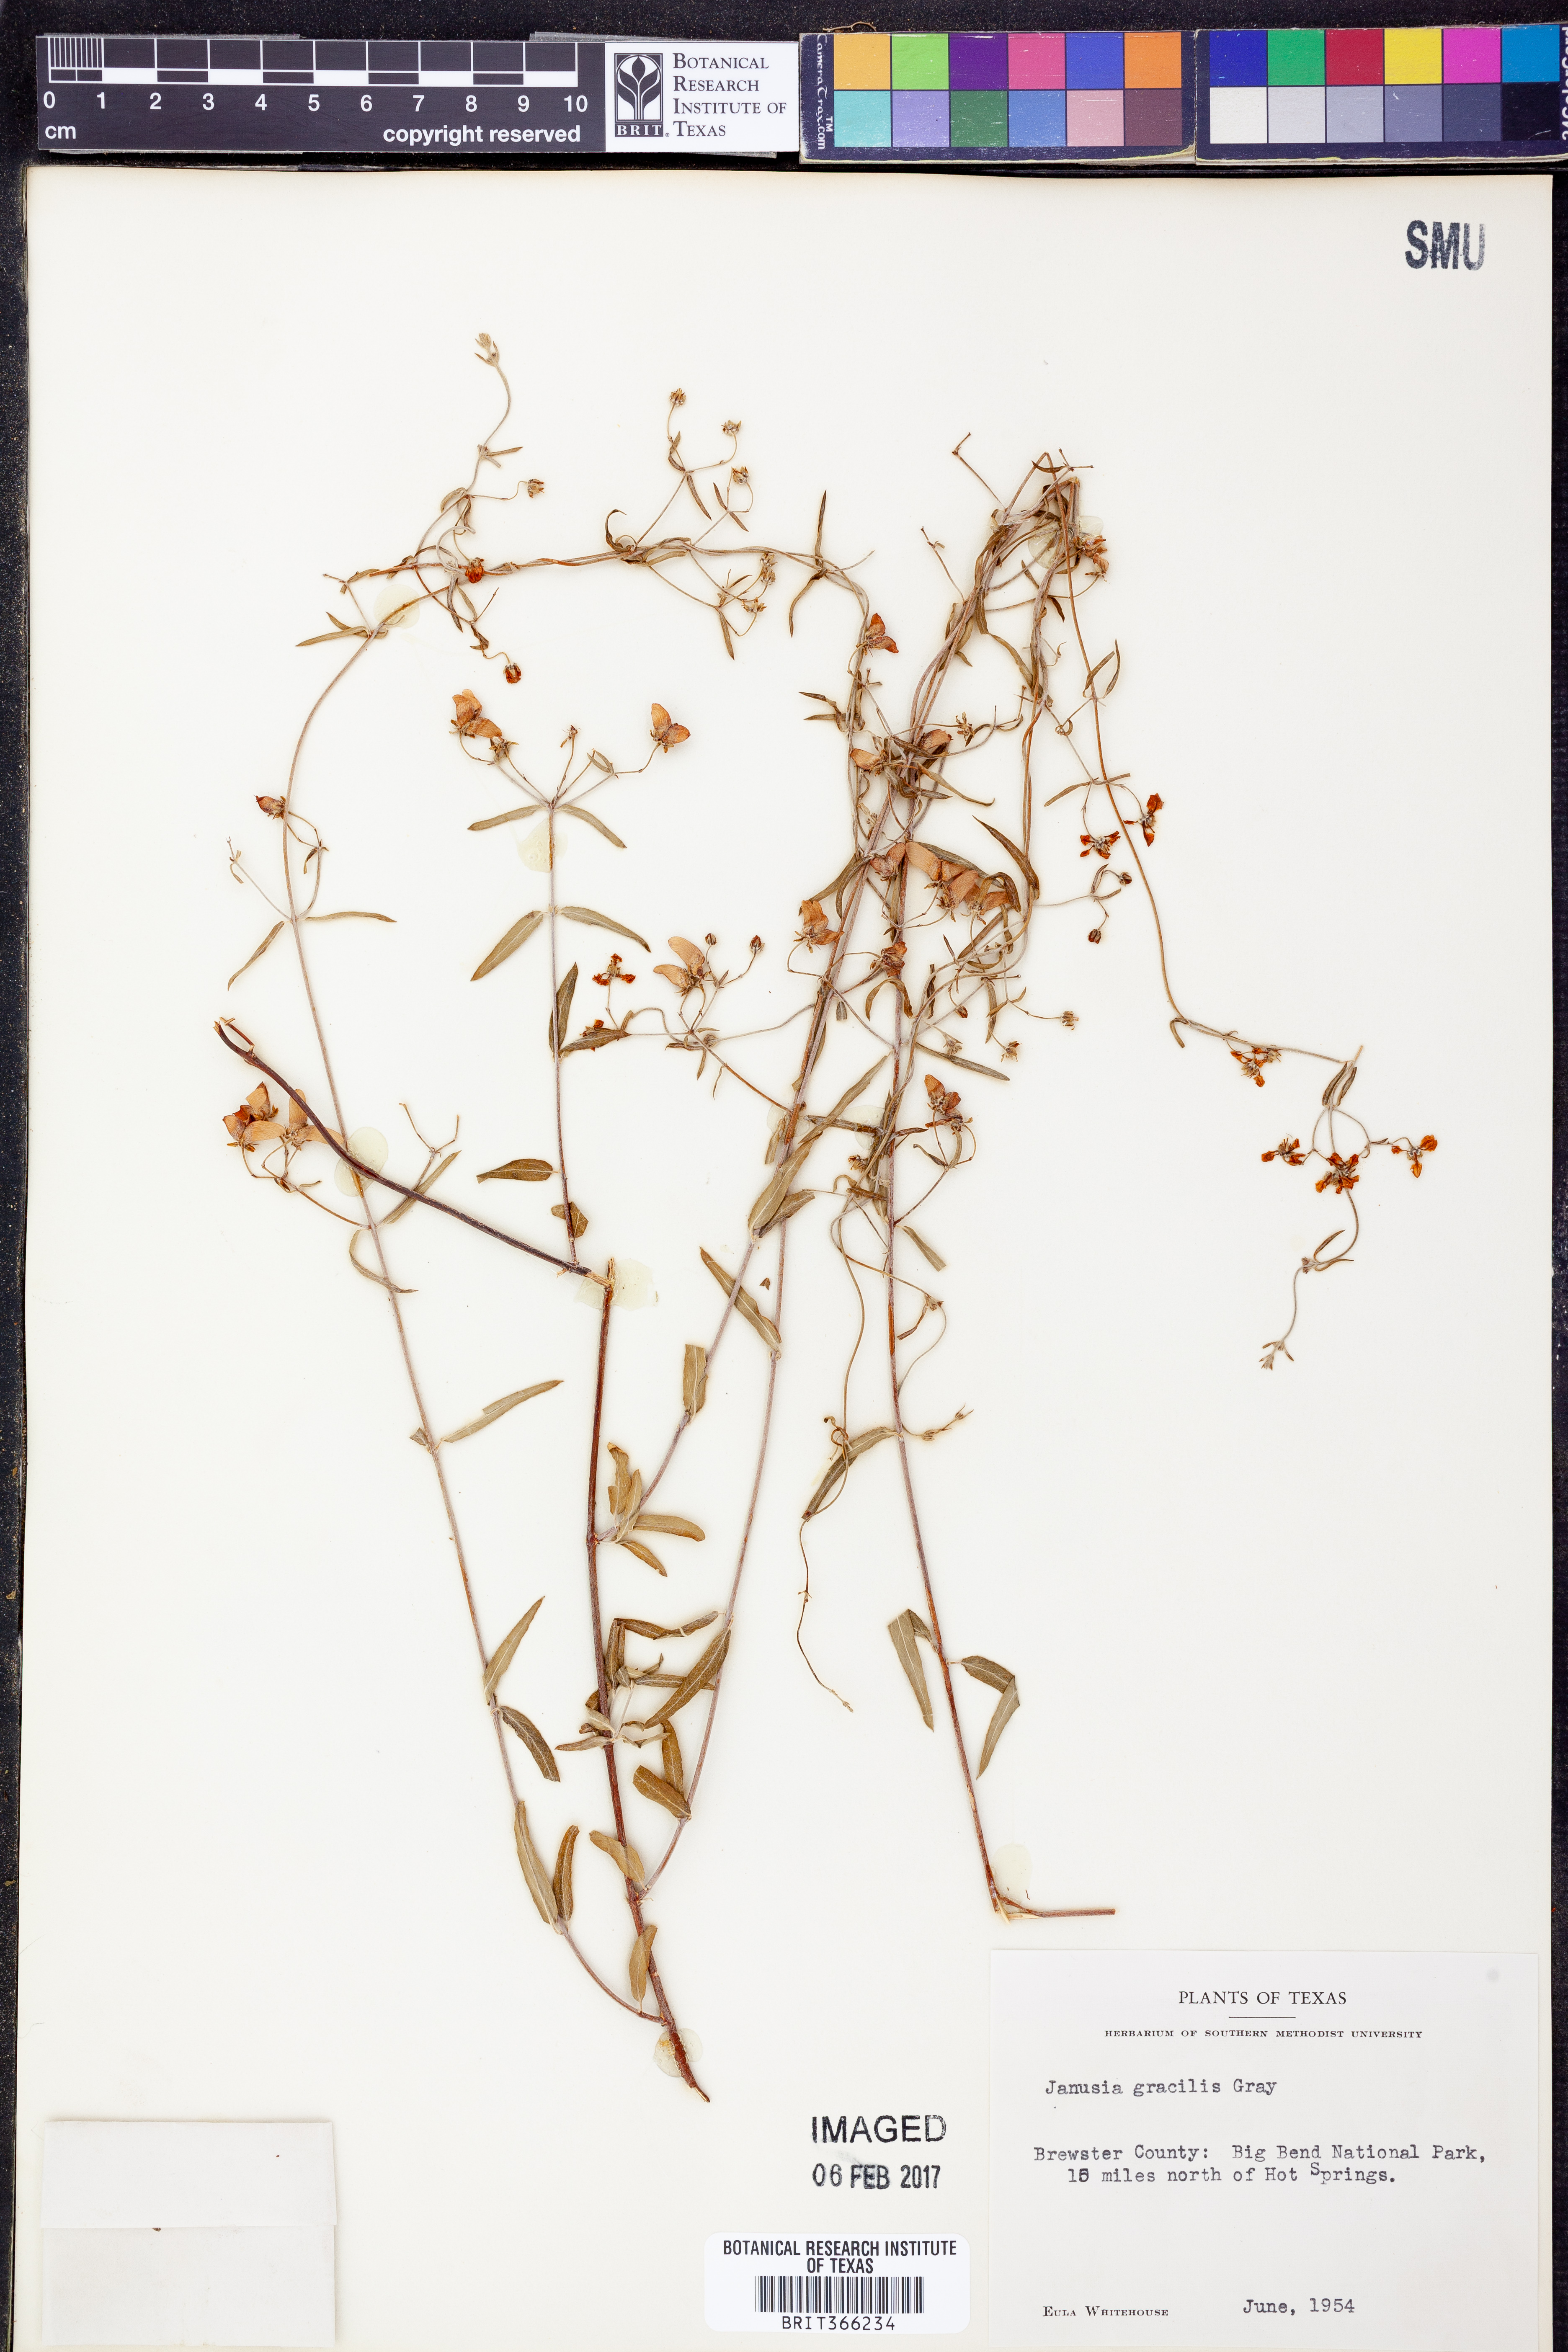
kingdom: Plantae
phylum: Tracheophyta
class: Magnoliopsida
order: Malpighiales
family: Malpighiaceae
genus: Cottsia
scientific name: Cottsia gracilis
